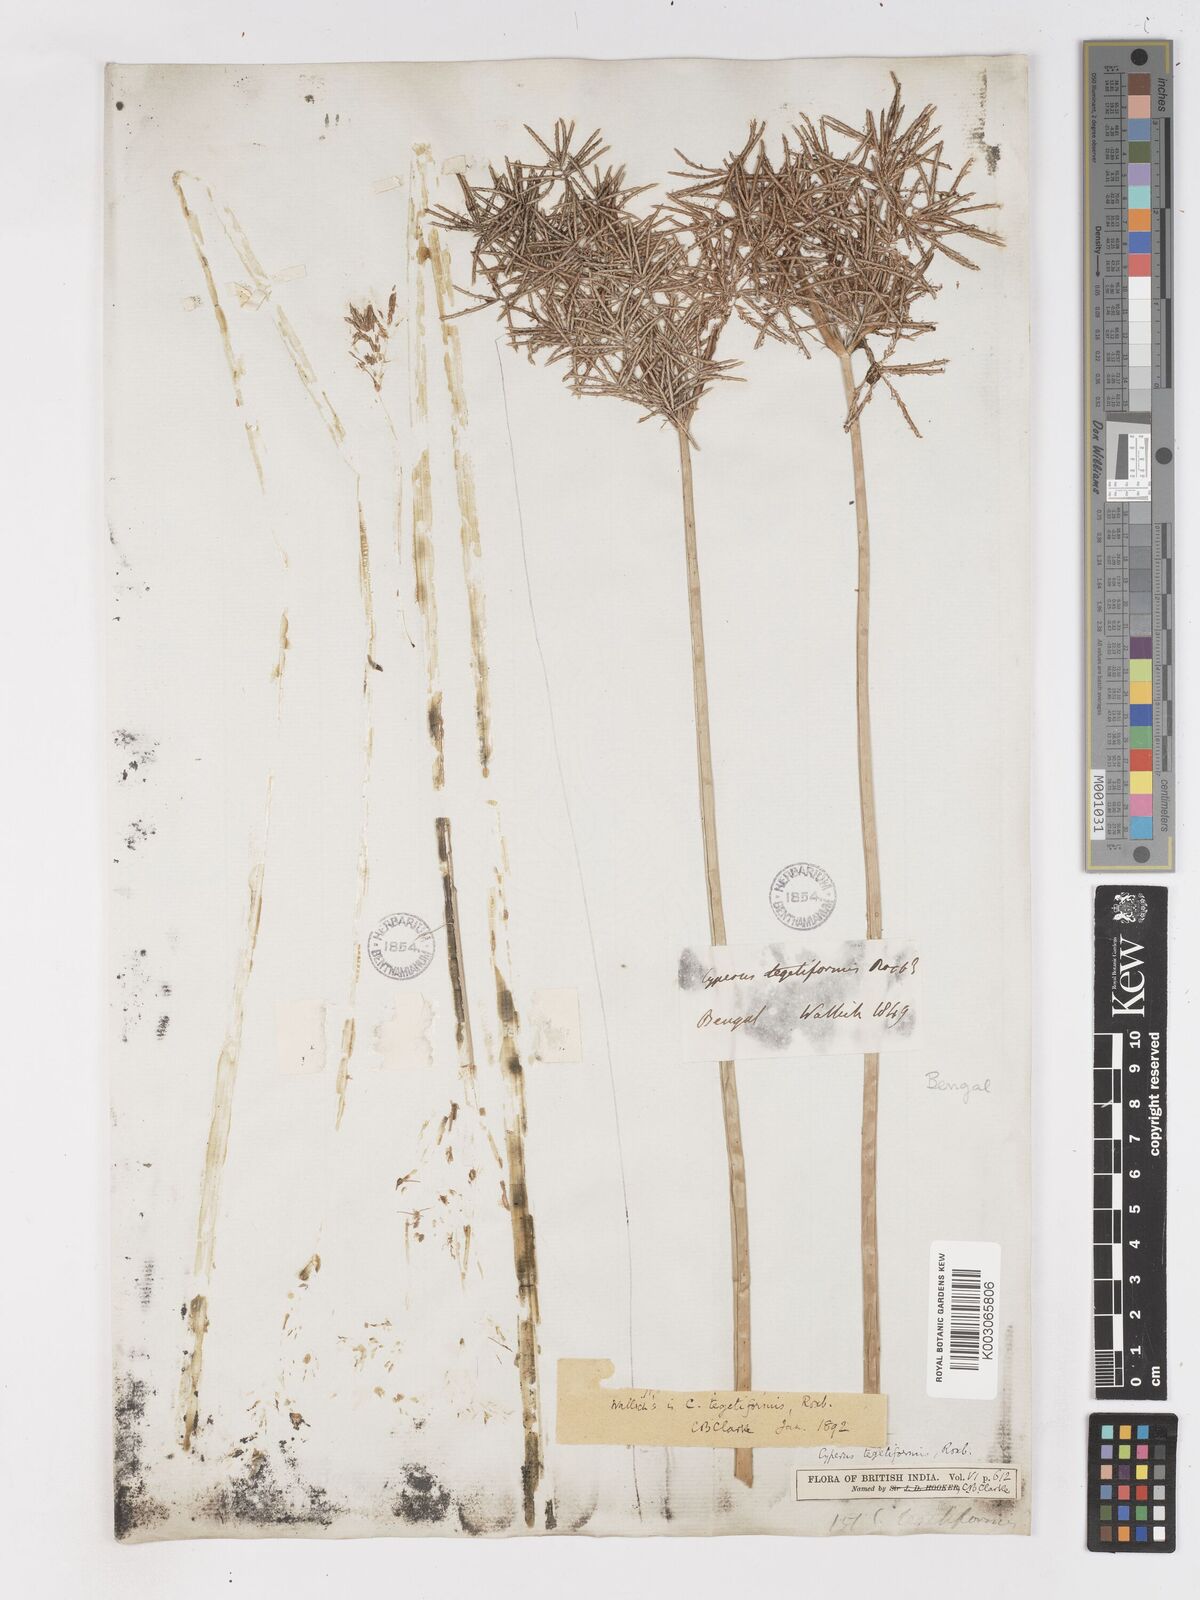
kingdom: Plantae
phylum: Tracheophyta
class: Liliopsida
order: Poales
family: Cyperaceae
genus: Cyperus
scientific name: Cyperus corymbosus
